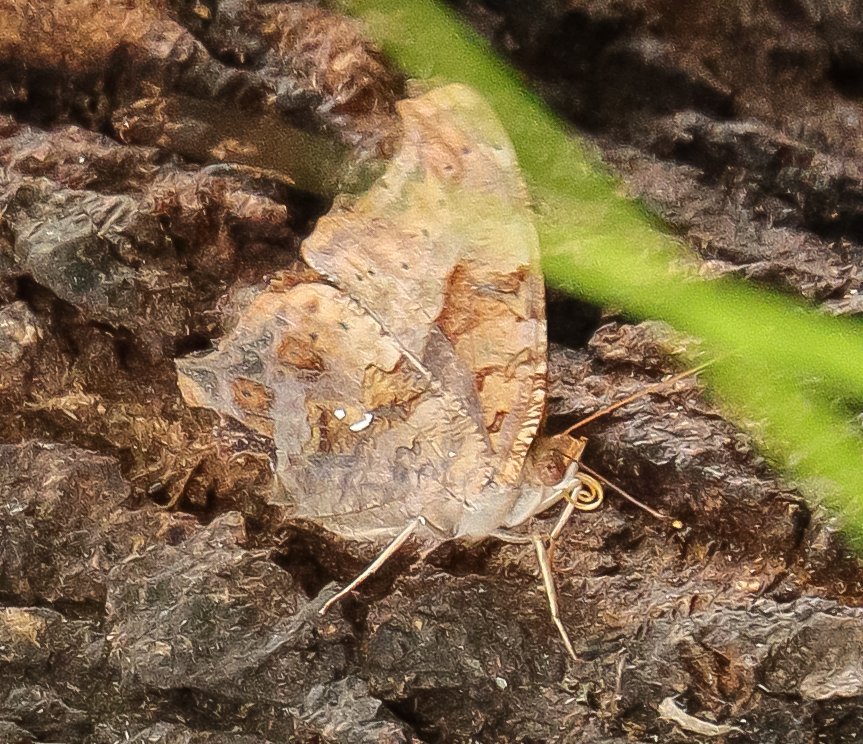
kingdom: Animalia
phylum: Arthropoda
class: Insecta
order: Lepidoptera
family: Nymphalidae
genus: Polygonia
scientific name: Polygonia interrogationis
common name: Question Mark
